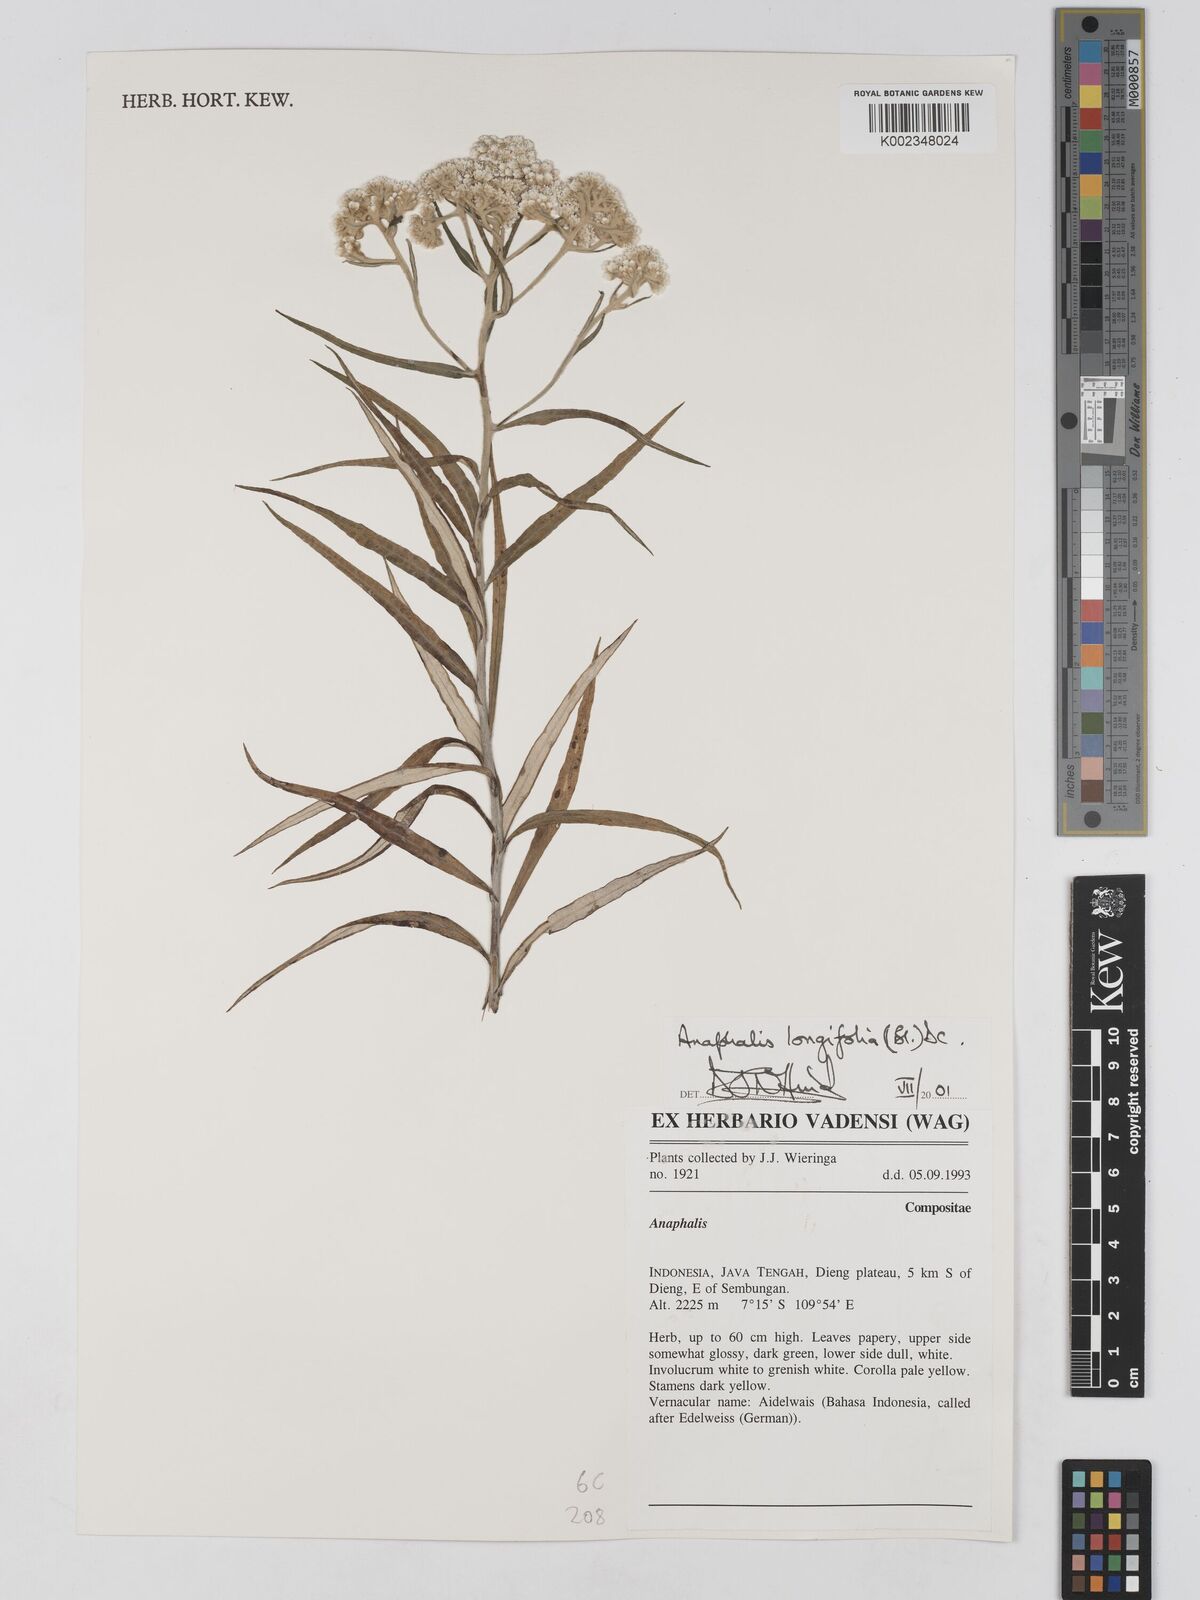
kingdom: Plantae
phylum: Tracheophyta
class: Magnoliopsida
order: Asterales
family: Asteraceae
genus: Anaphalis
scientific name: Anaphalis longifolia
